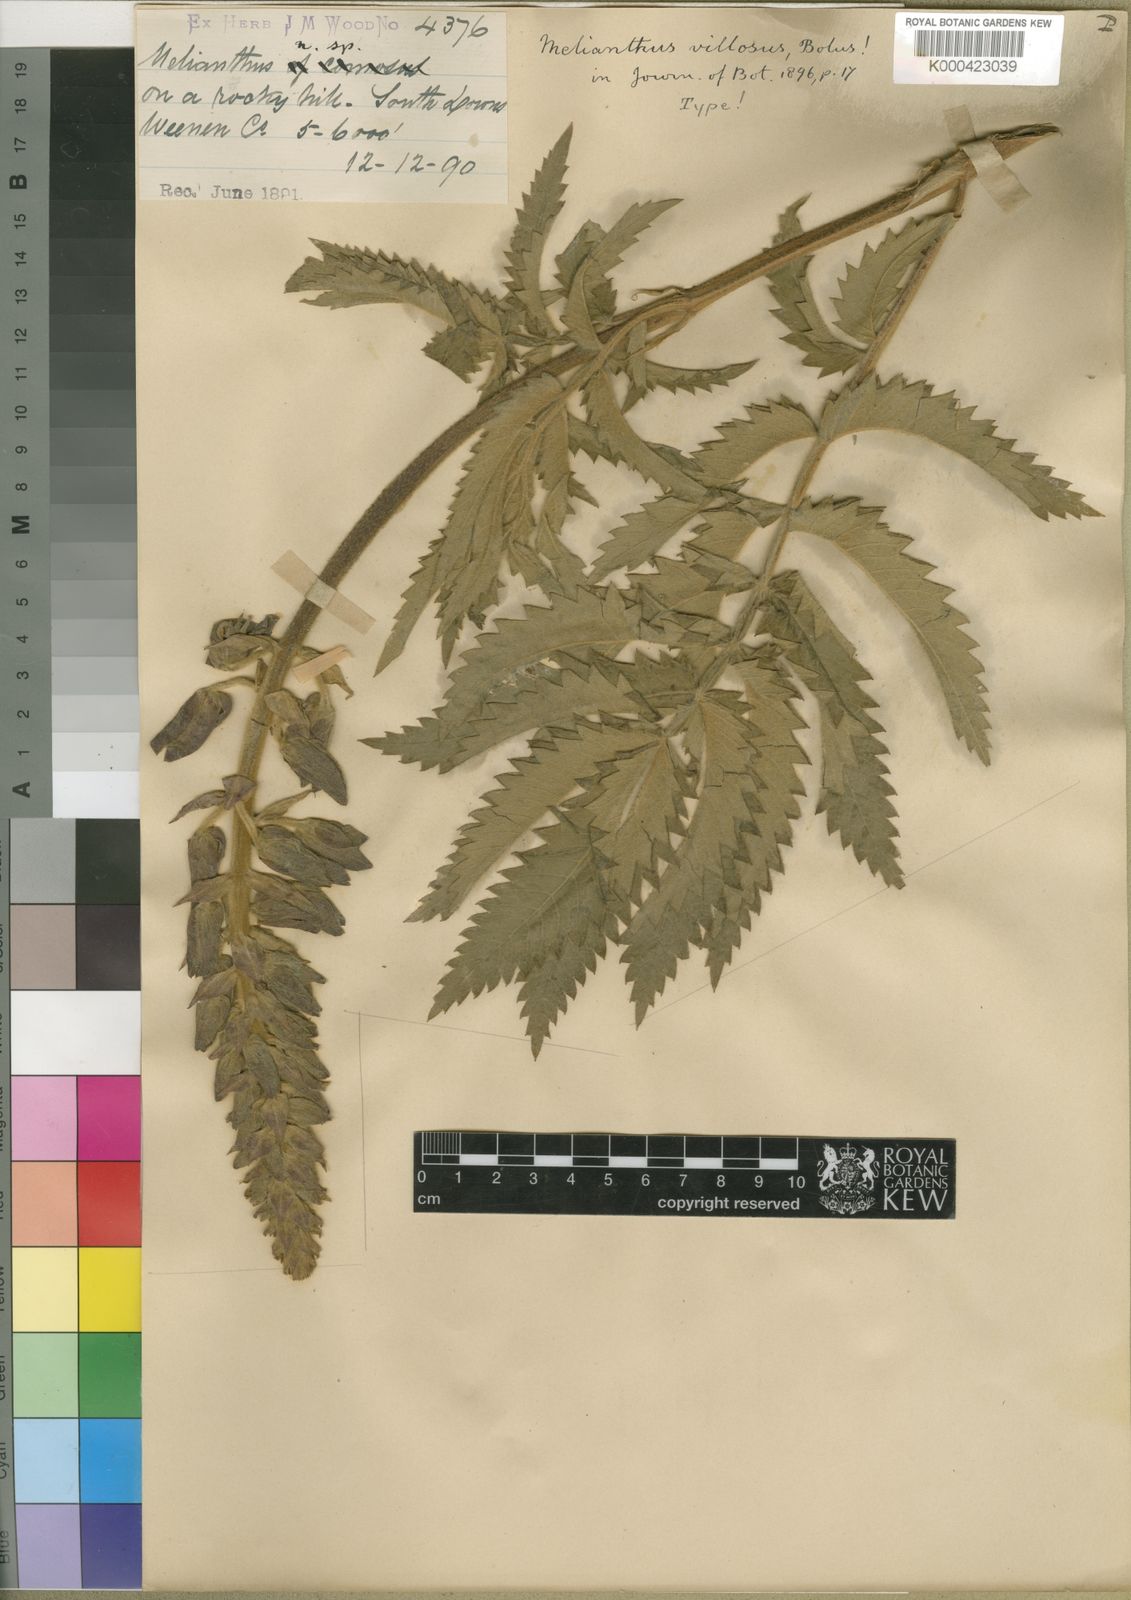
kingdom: Plantae
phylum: Tracheophyta
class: Magnoliopsida
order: Geraniales
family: Melianthaceae
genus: Melianthus
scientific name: Melianthus villosus
